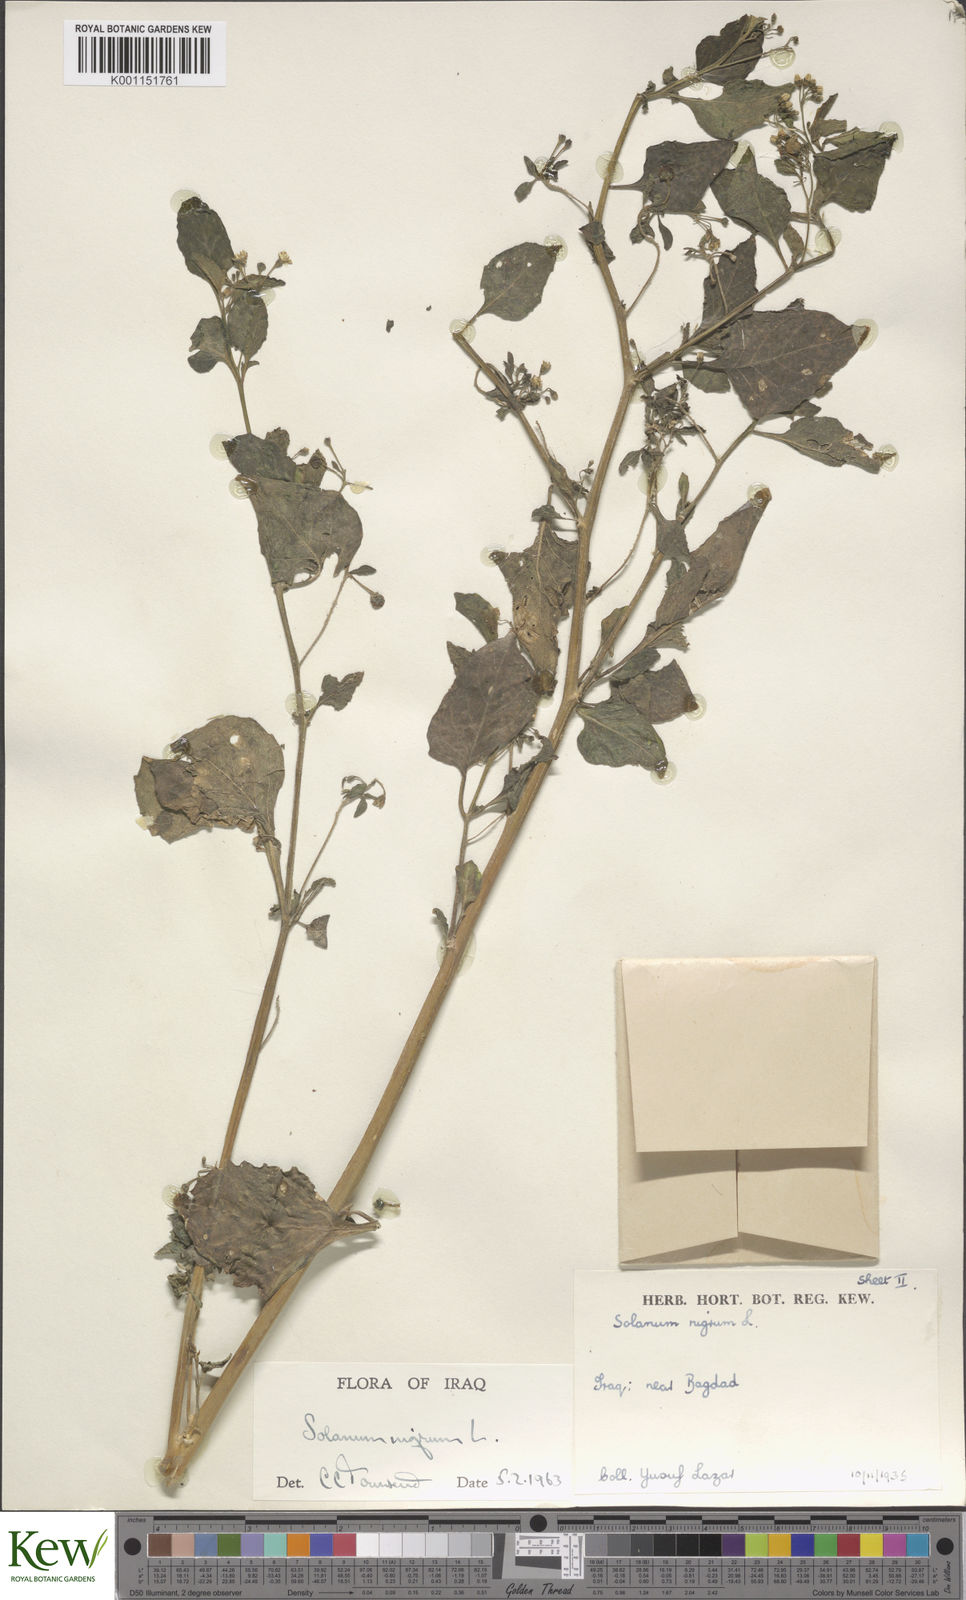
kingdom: Plantae
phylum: Tracheophyta
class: Magnoliopsida
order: Solanales
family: Solanaceae
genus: Solanum
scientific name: Solanum nigrum
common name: Black nightshade
